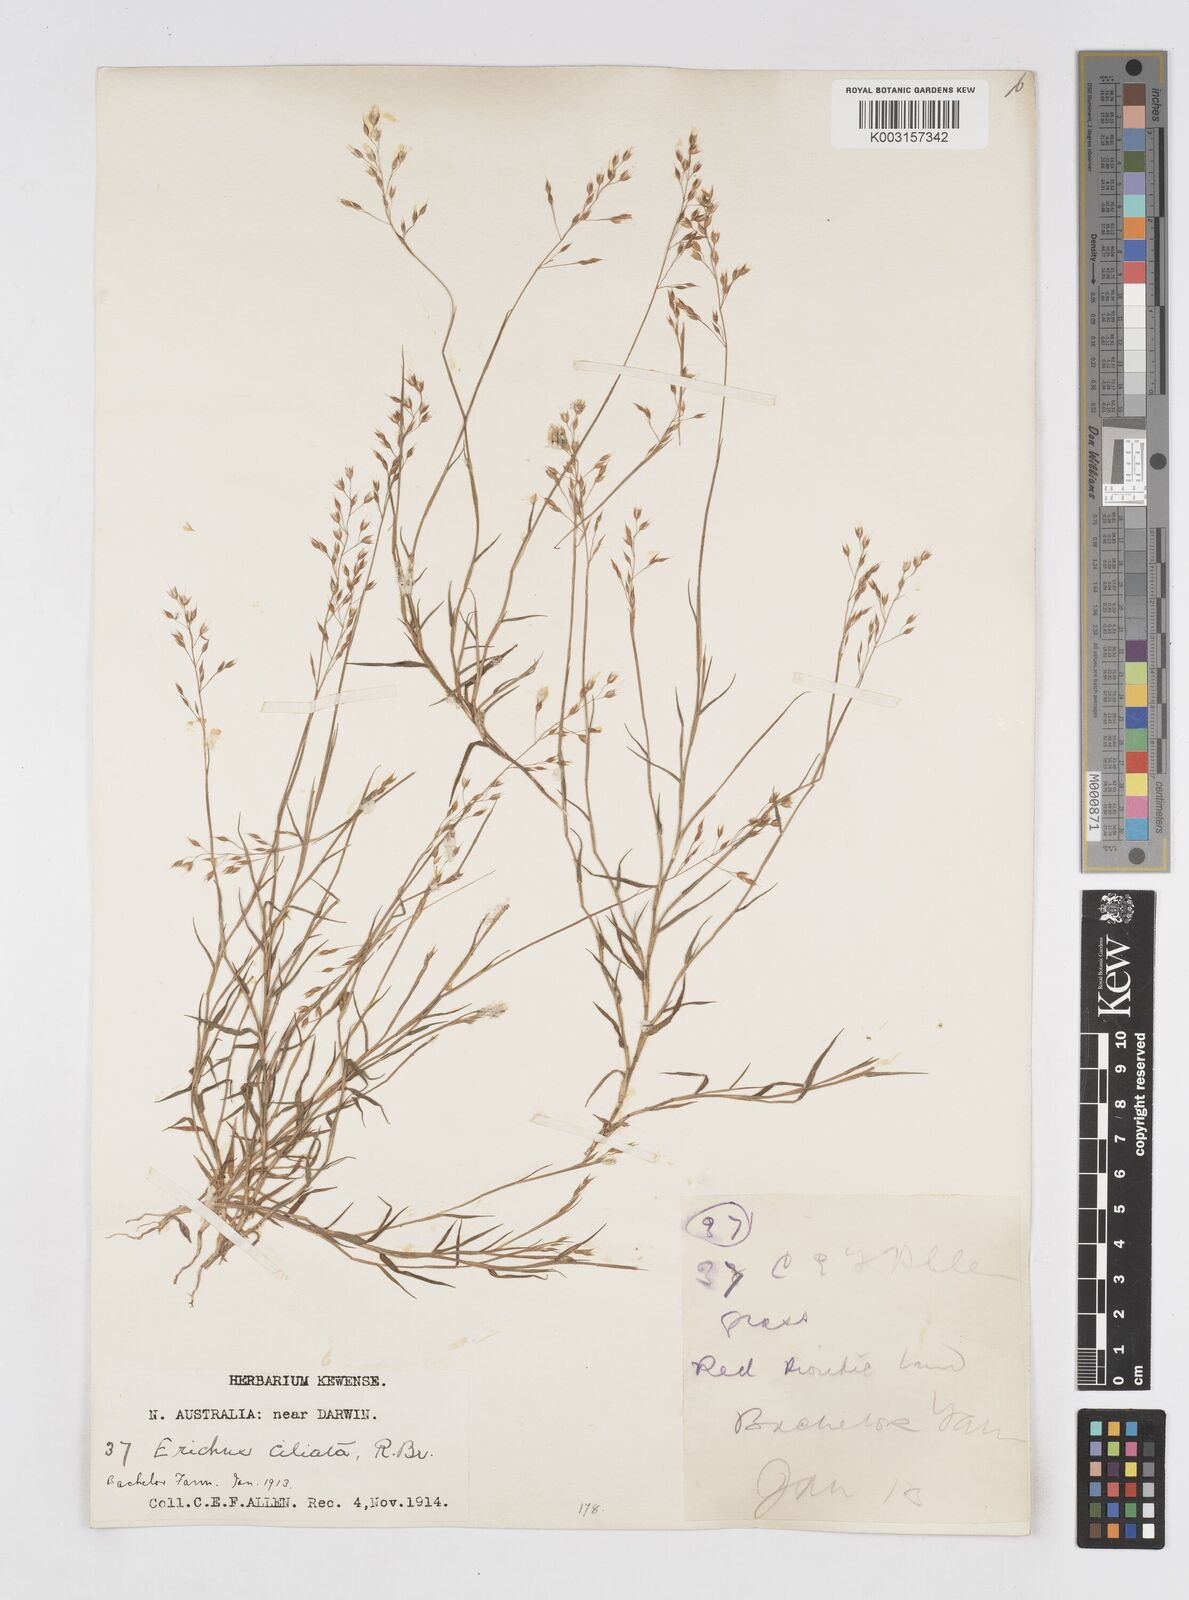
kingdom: Plantae
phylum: Tracheophyta
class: Liliopsida
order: Poales
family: Poaceae
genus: Eriachne
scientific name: Eriachne ciliata
